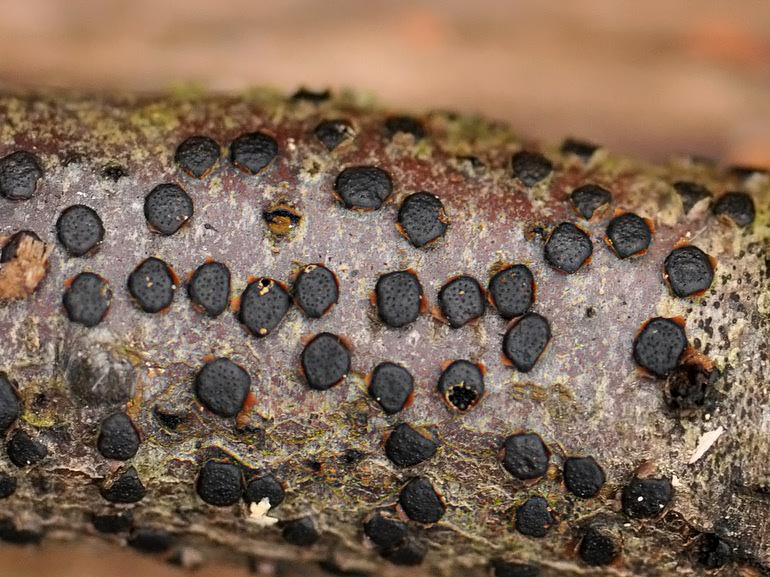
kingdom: Fungi
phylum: Ascomycota
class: Sordariomycetes
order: Xylariales
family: Diatrypaceae
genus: Diatrype
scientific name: Diatrype disciformis
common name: kant-kulskorpe
